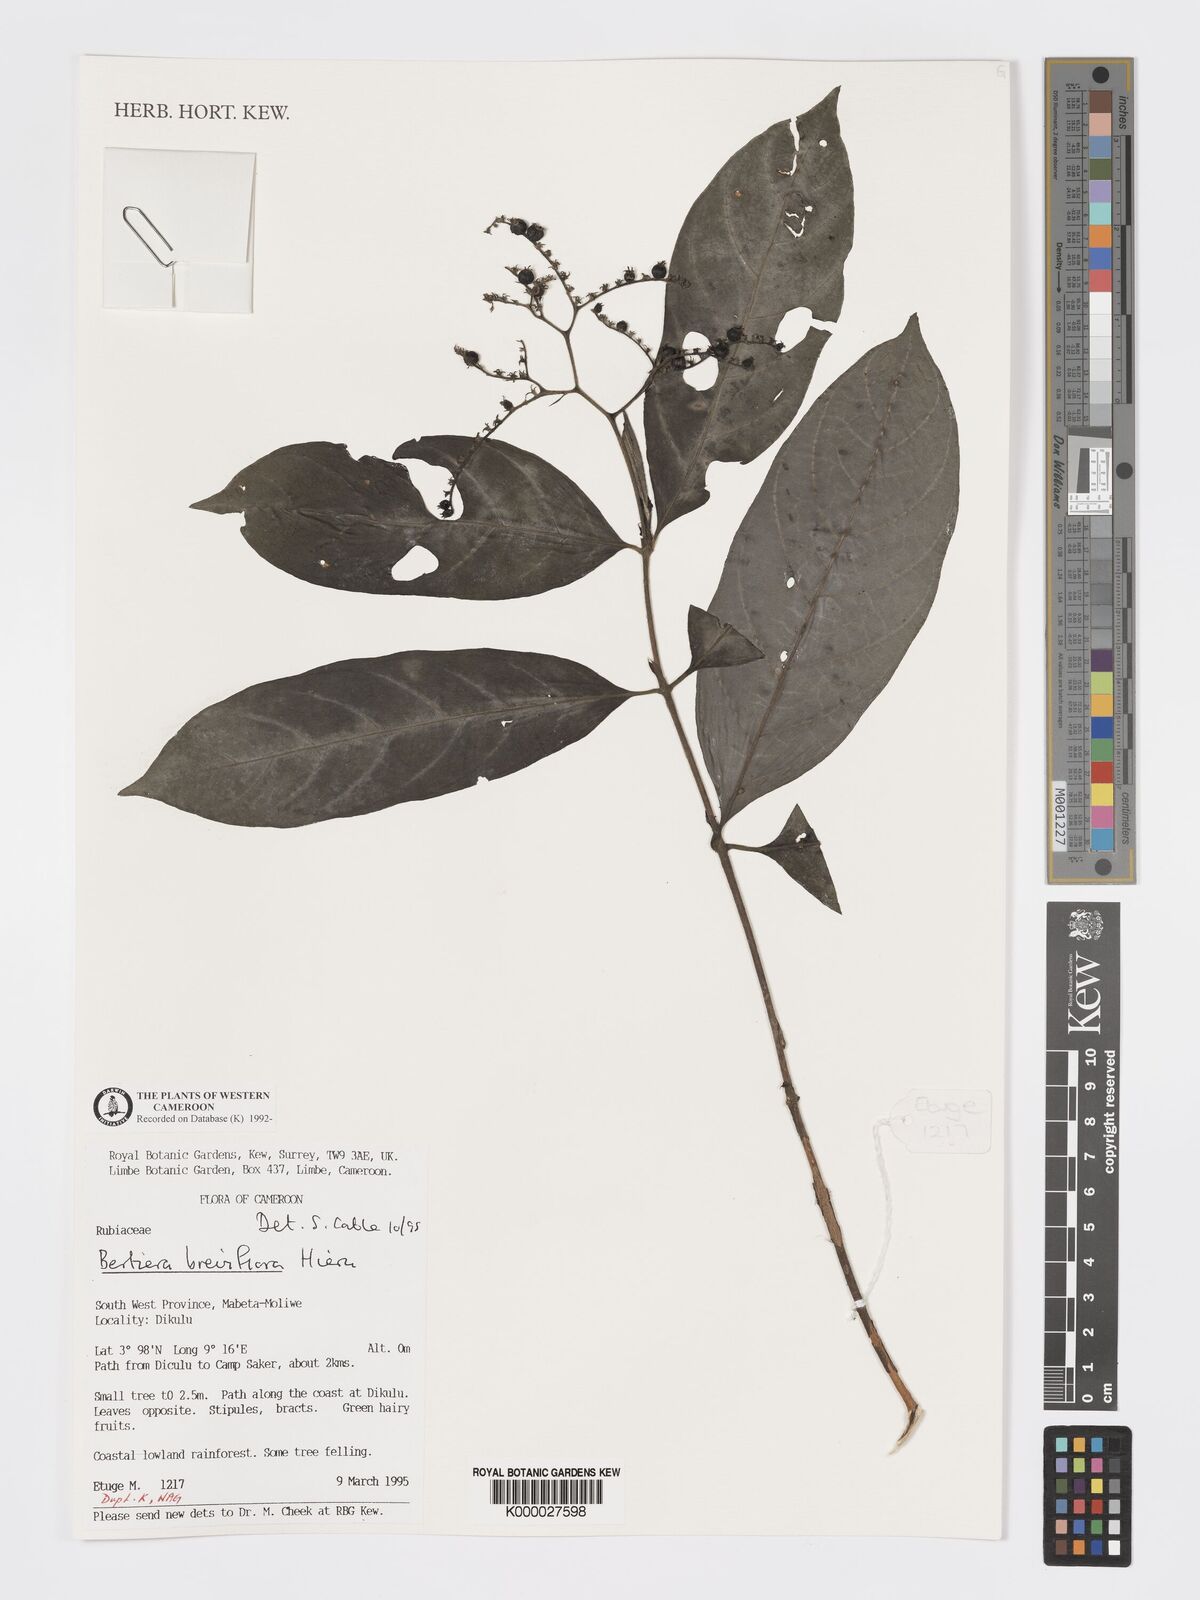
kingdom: Plantae
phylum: Tracheophyta
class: Magnoliopsida
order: Gentianales
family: Rubiaceae
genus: Bertiera
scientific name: Bertiera breviflora
